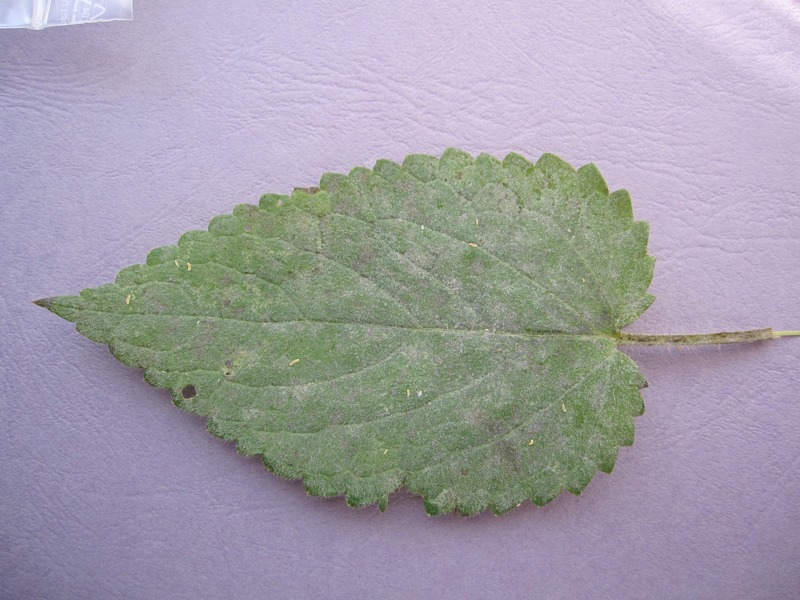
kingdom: Fungi
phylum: Ascomycota
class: Leotiomycetes
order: Helotiales
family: Erysiphaceae
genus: Neoerysiphe
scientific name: Neoerysiphe galeopsidis
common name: Mint mildew
